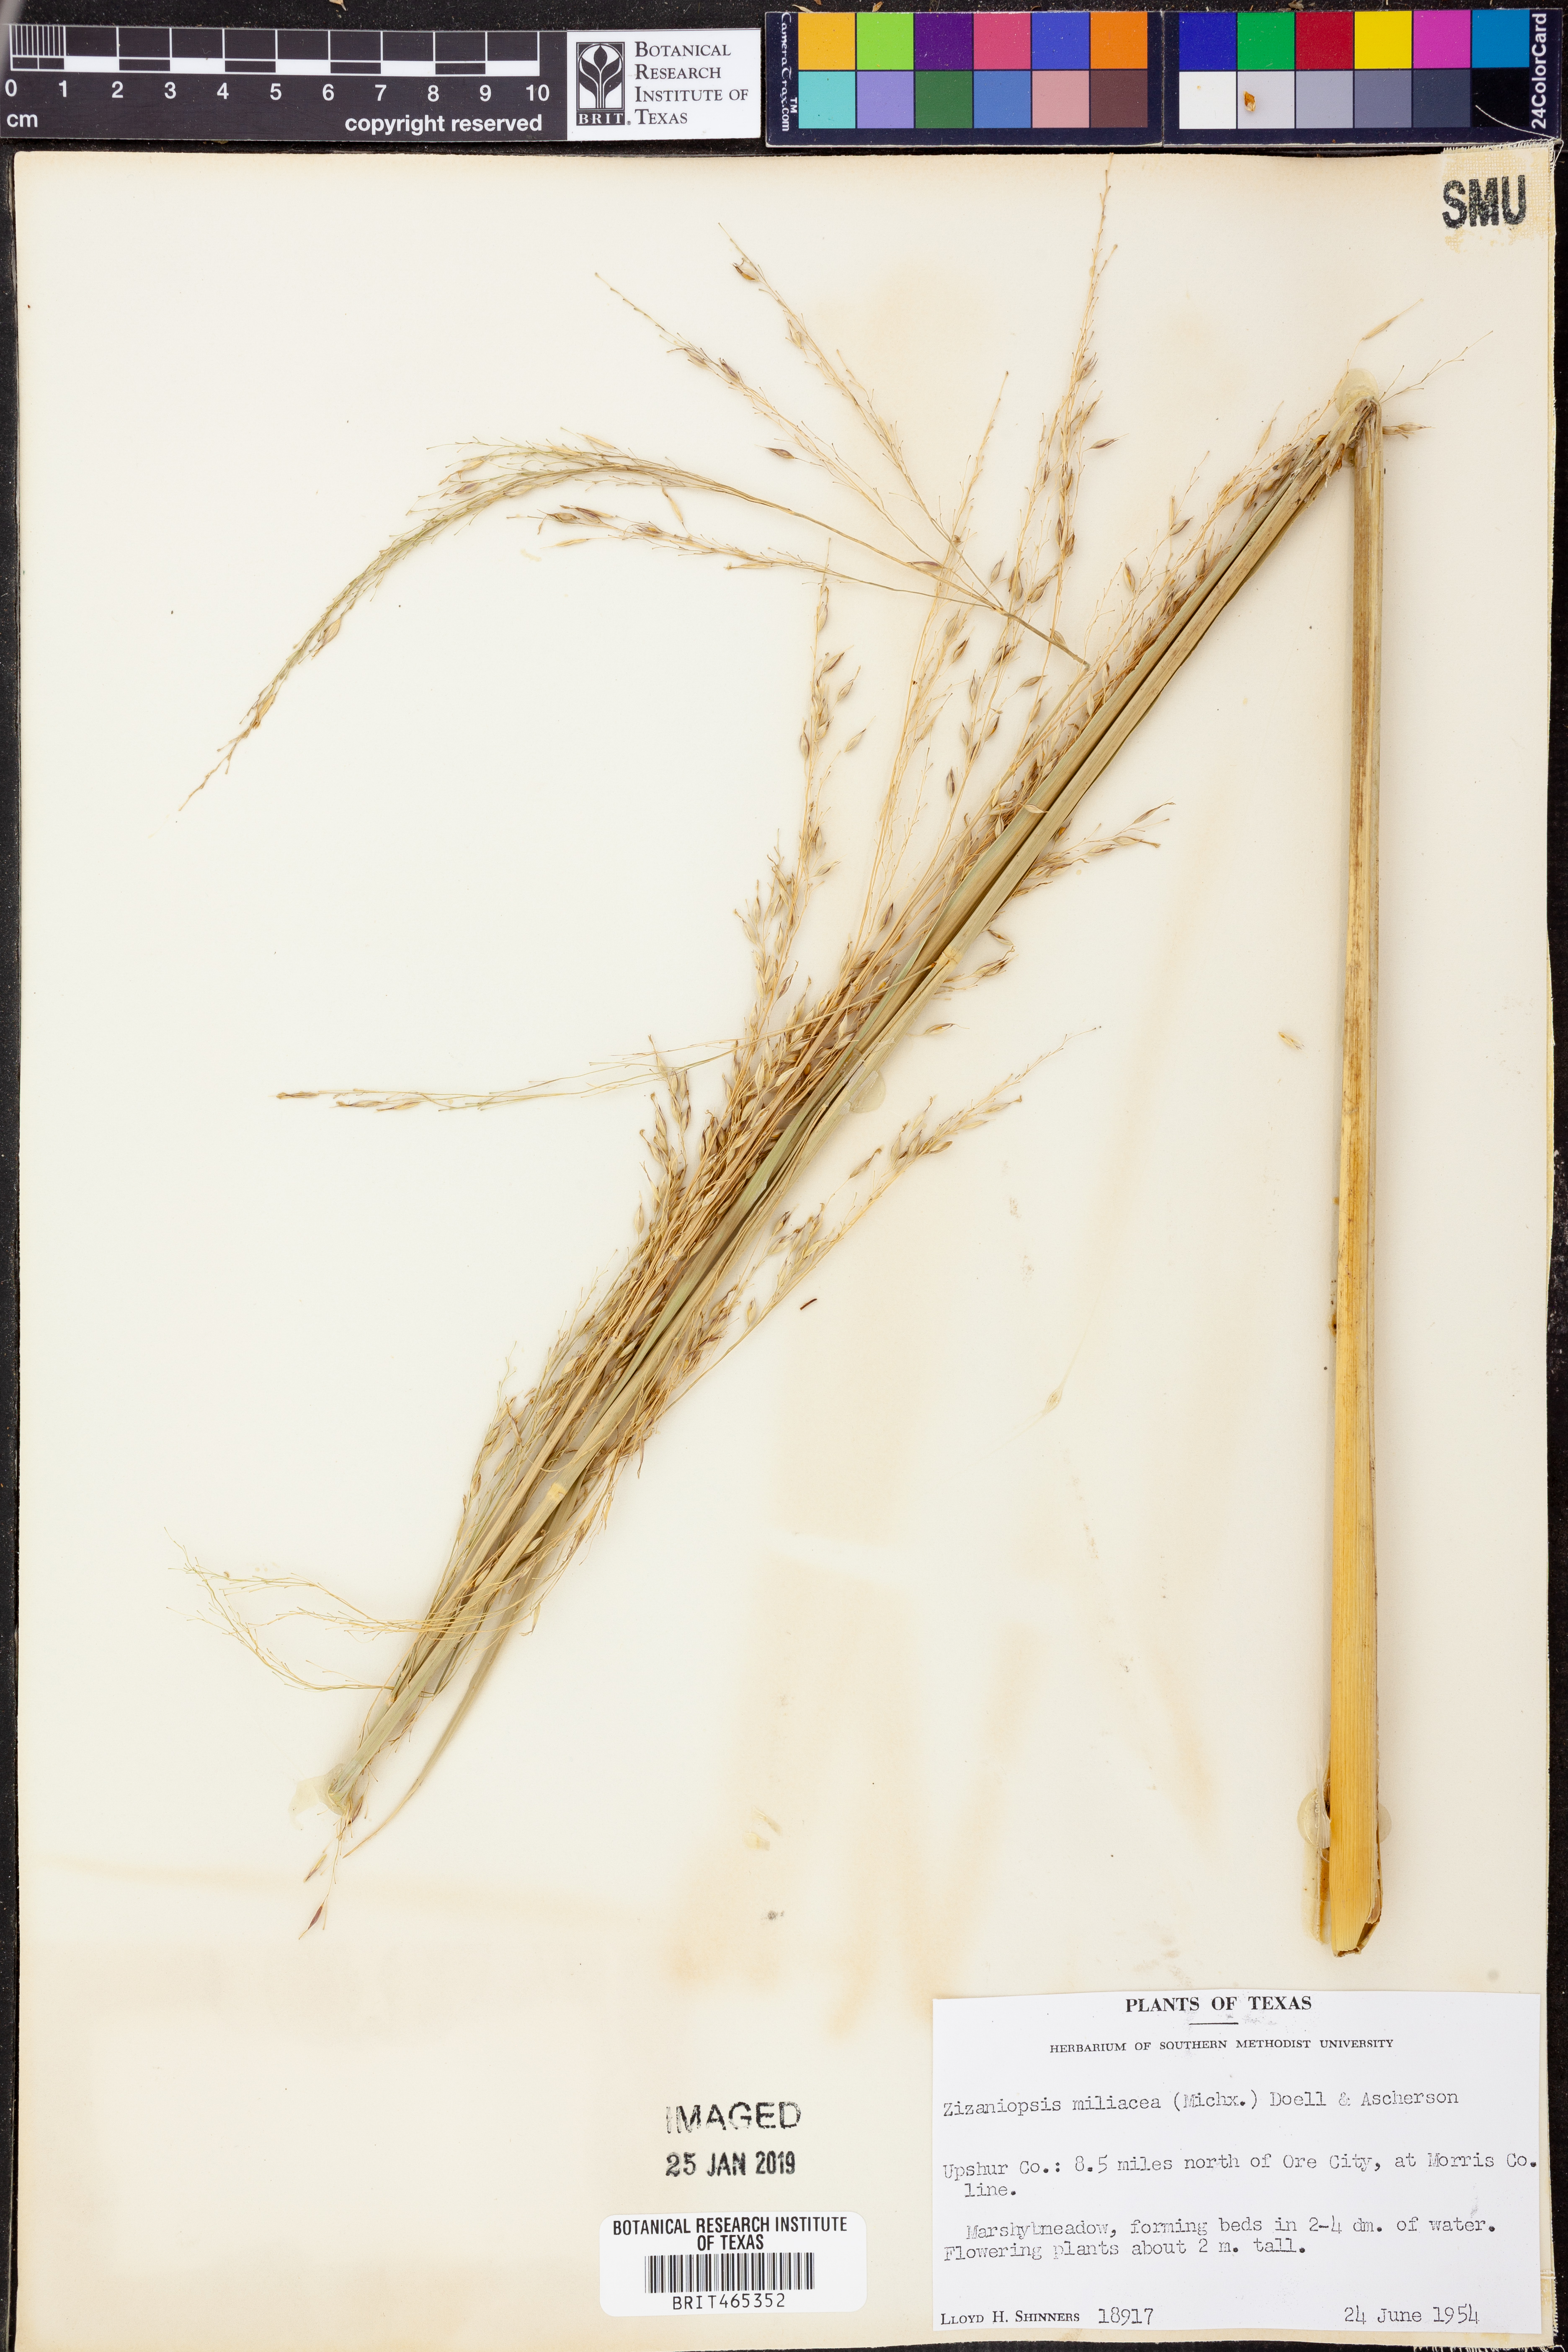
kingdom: Plantae
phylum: Tracheophyta
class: Liliopsida
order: Poales
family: Poaceae
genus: Zizaniopsis
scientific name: Zizaniopsis miliacea
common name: Giant-cutgrass
